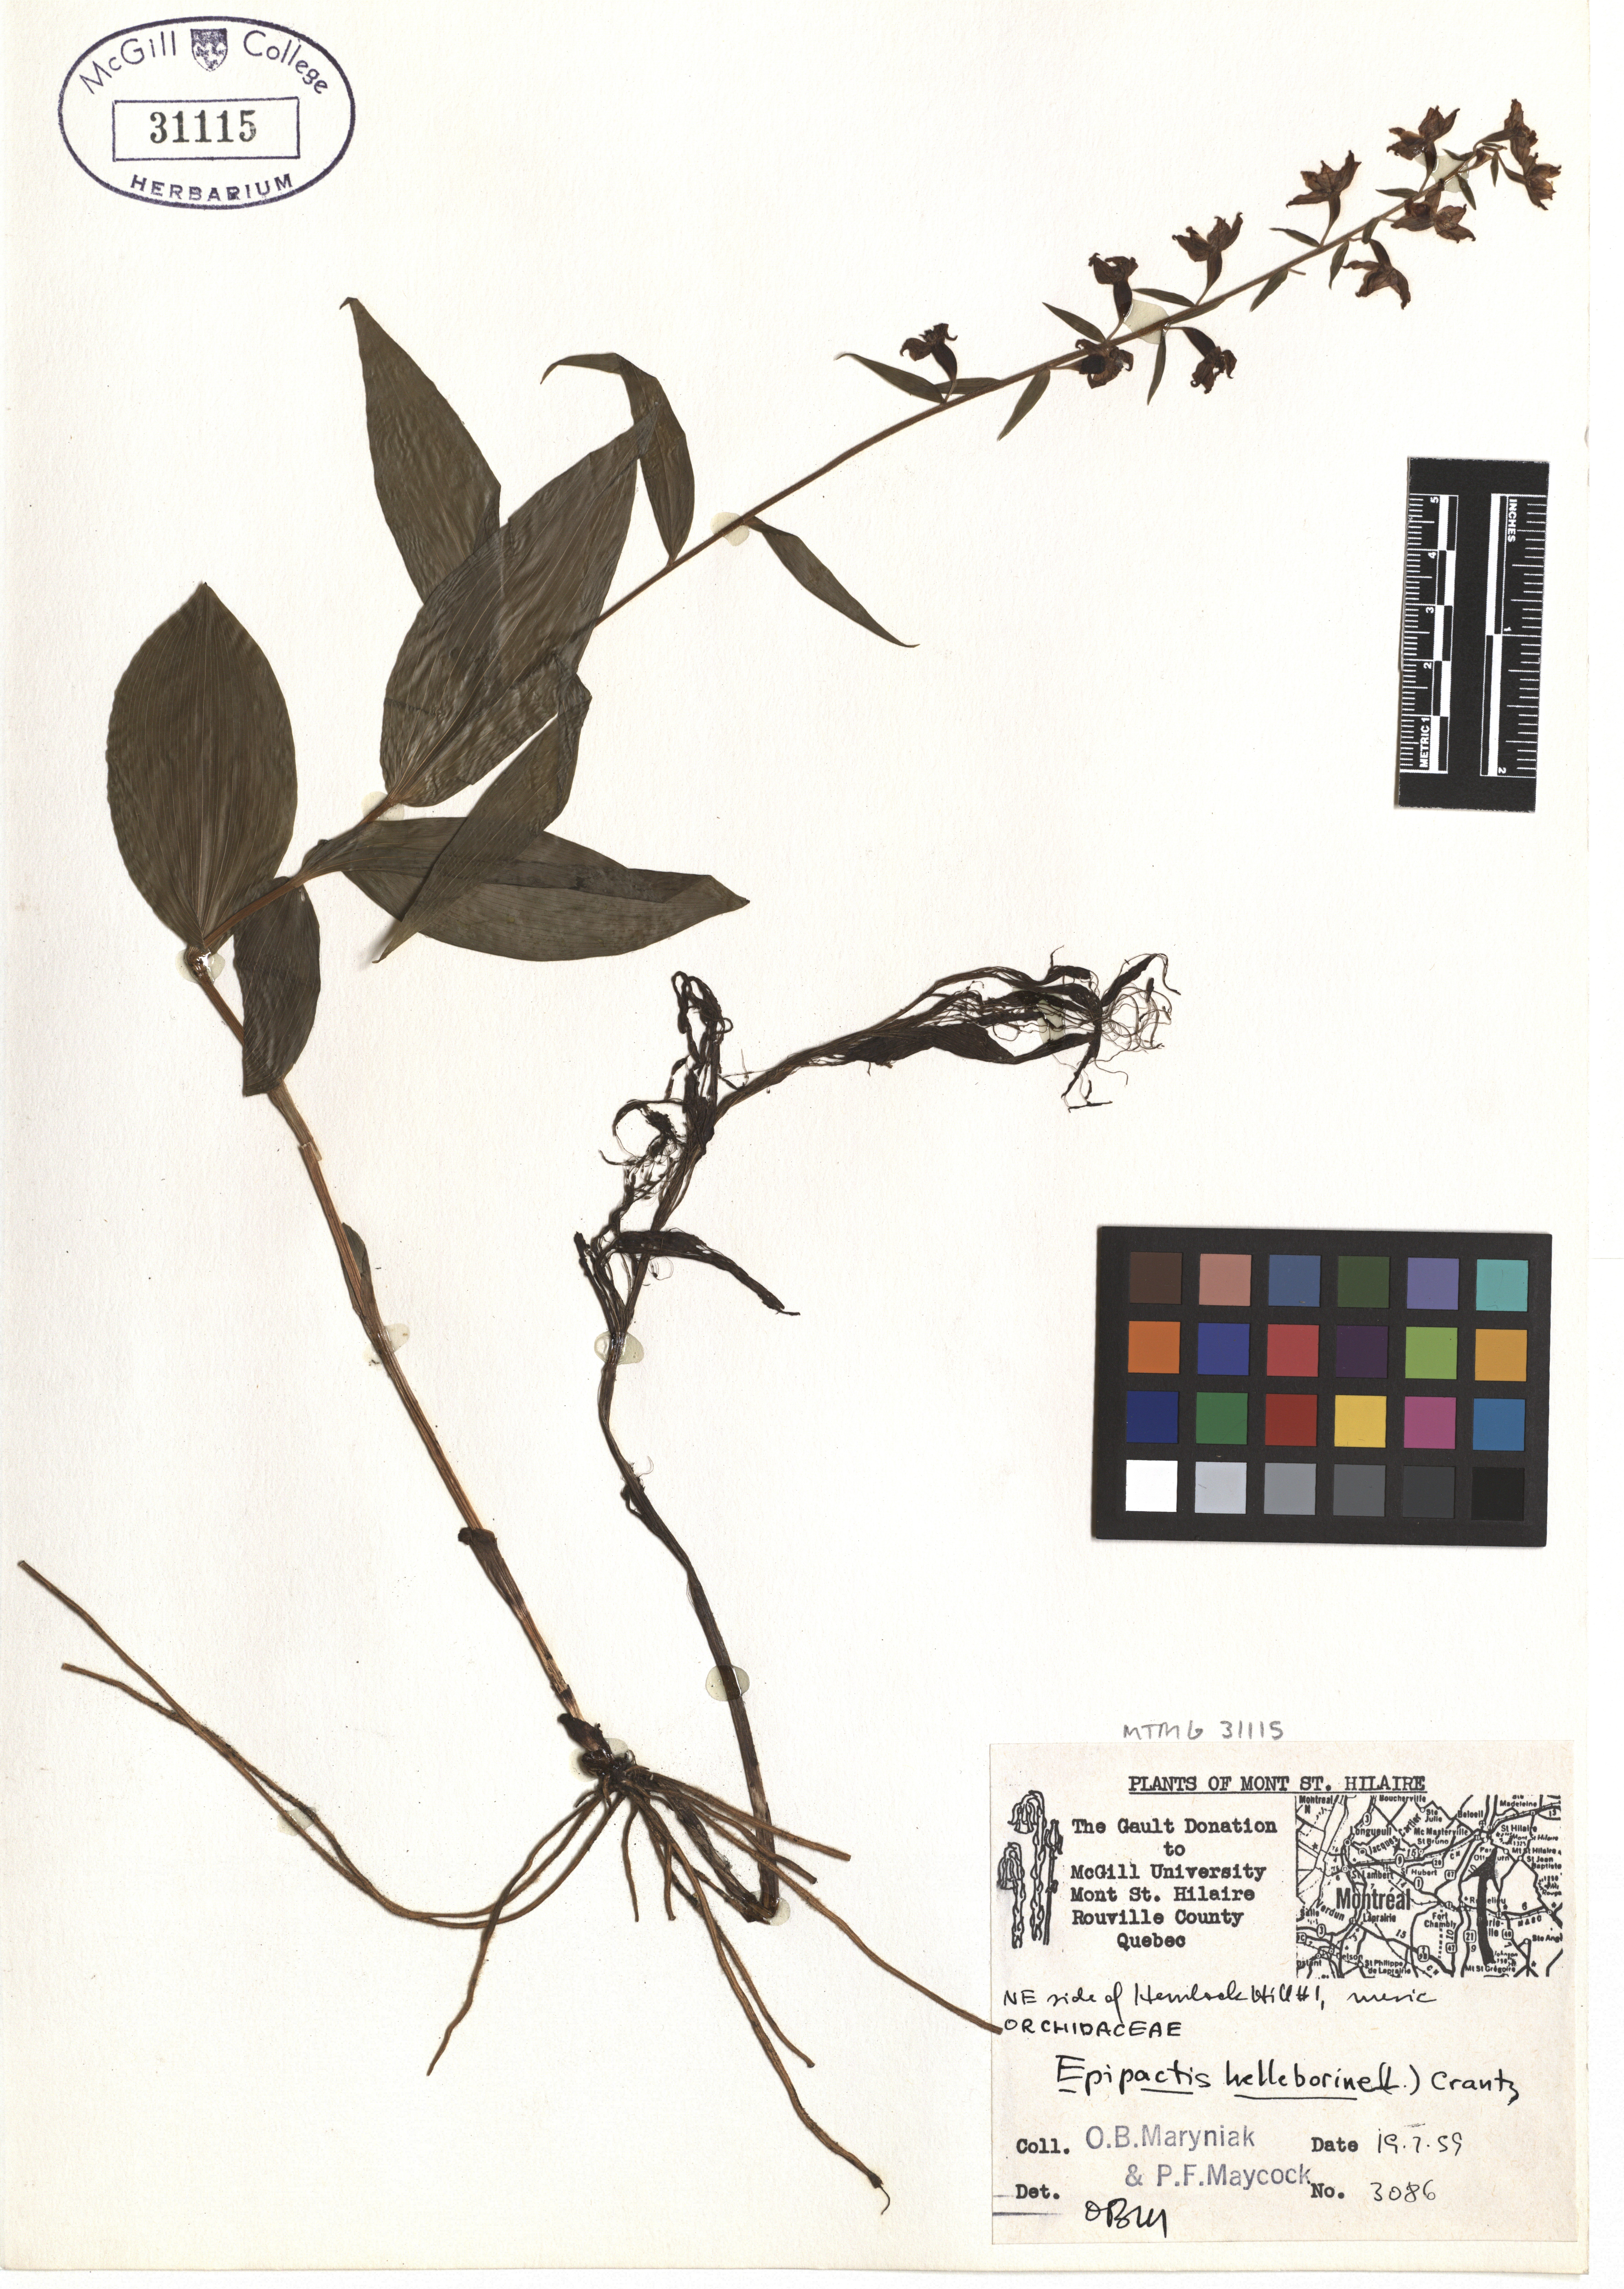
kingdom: Plantae
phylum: Tracheophyta
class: Liliopsida
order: Asparagales
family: Orchidaceae
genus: Epipactis
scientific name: Epipactis helleborine
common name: Broad-leaved helleborine
